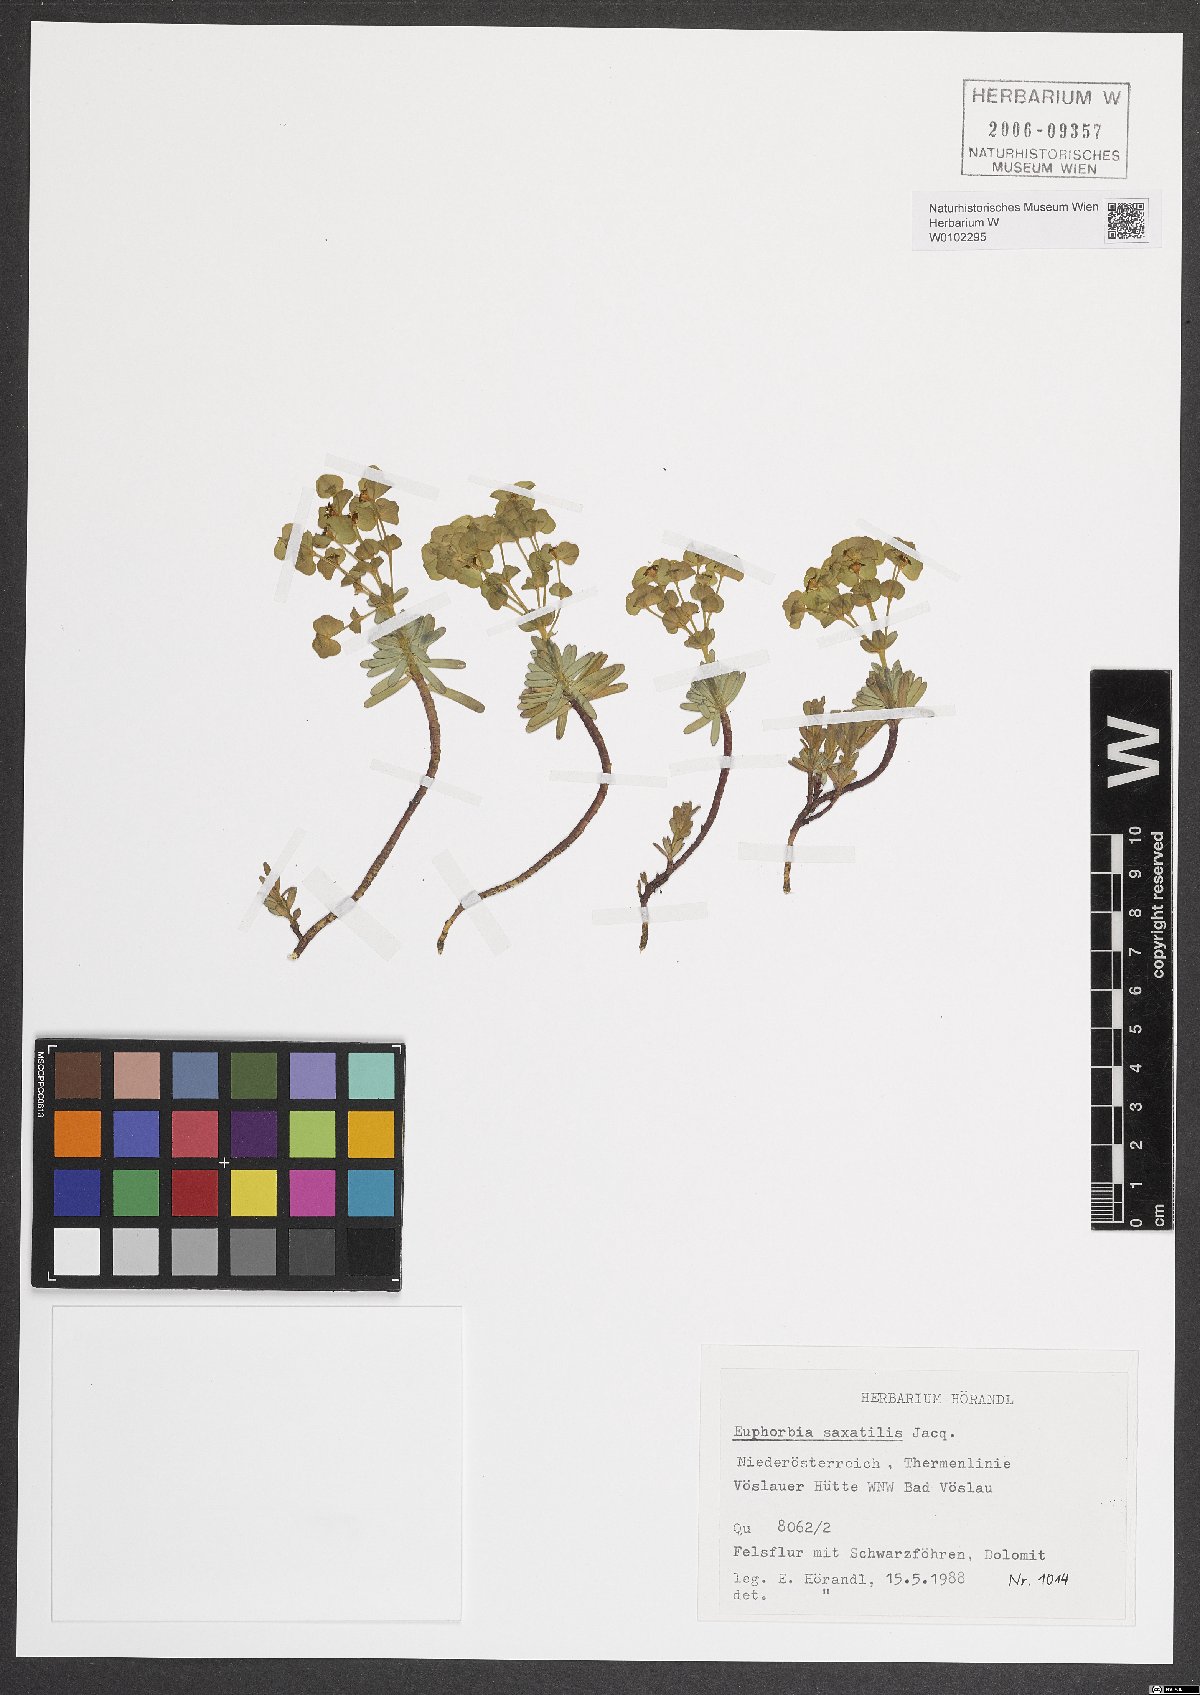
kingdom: Plantae
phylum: Tracheophyta
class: Magnoliopsida
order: Malpighiales
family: Euphorbiaceae
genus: Euphorbia
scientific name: Euphorbia saxatilis
